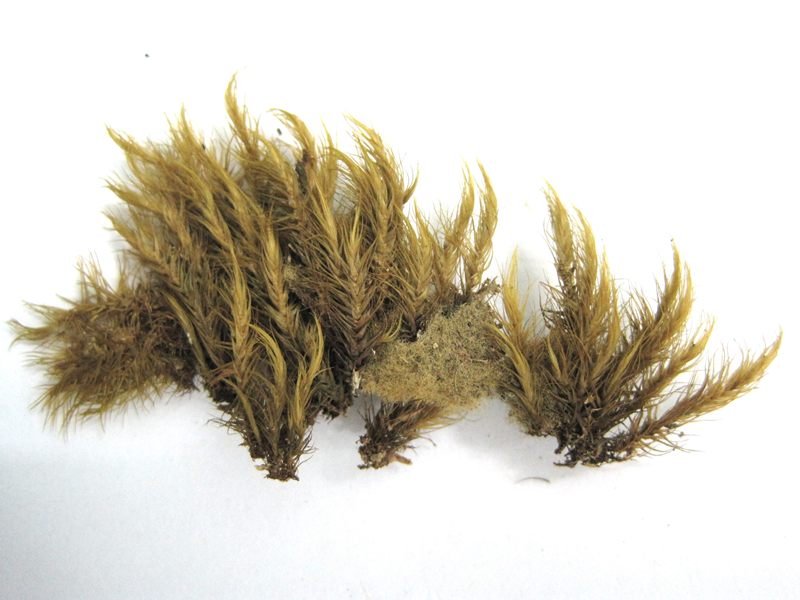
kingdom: Plantae
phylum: Bryophyta
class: Bryopsida
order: Dicranales
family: Dicranaceae
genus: Dicranoloma
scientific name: Dicranoloma braunii
